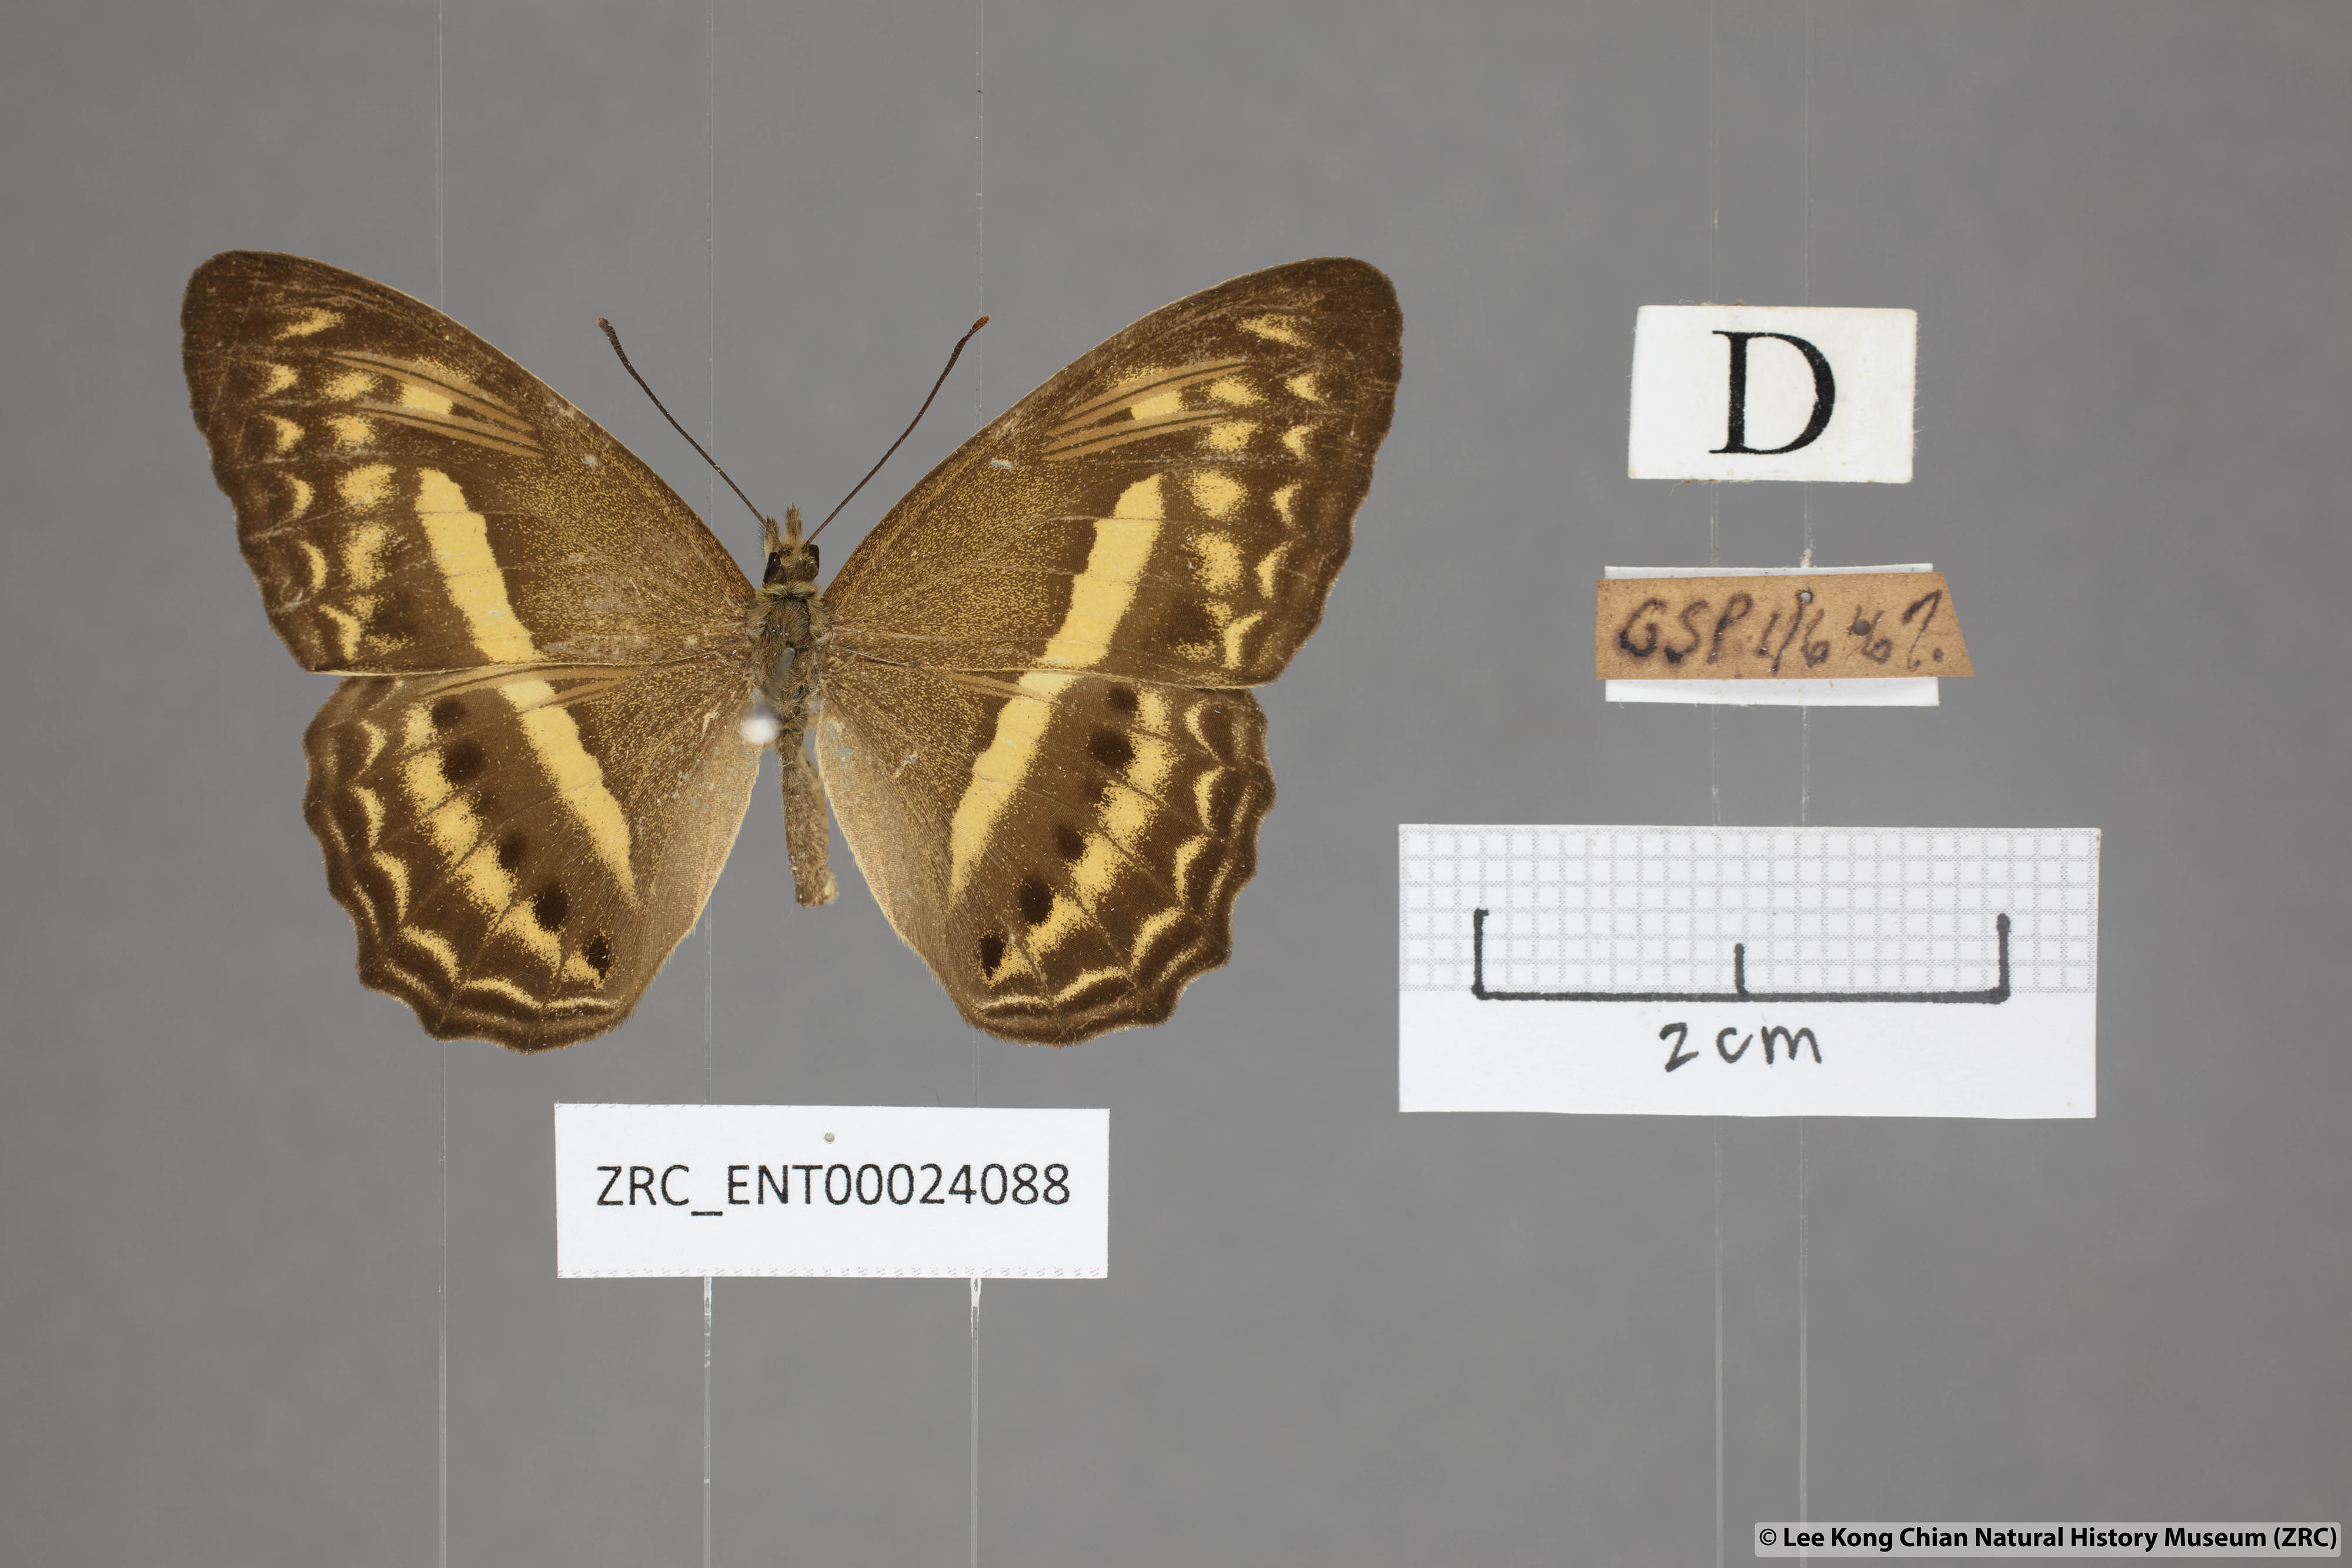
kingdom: Animalia
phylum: Arthropoda
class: Insecta
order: Lepidoptera
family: Nymphalidae
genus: Cirrochroa
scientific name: Cirrochroa fasciata
